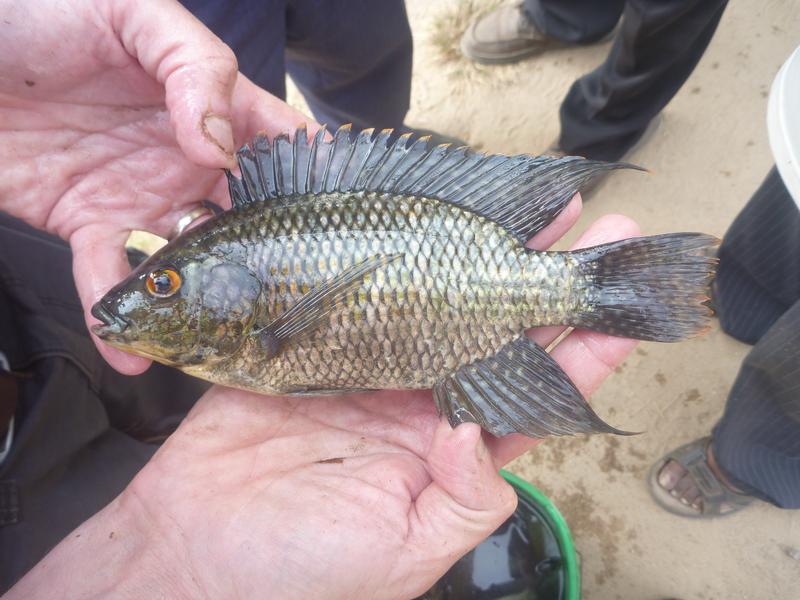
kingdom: Animalia
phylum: Chordata
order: Perciformes
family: Cichlidae
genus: Oreochromis
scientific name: Oreochromis leucostictus
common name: Blue spotted tilapia
